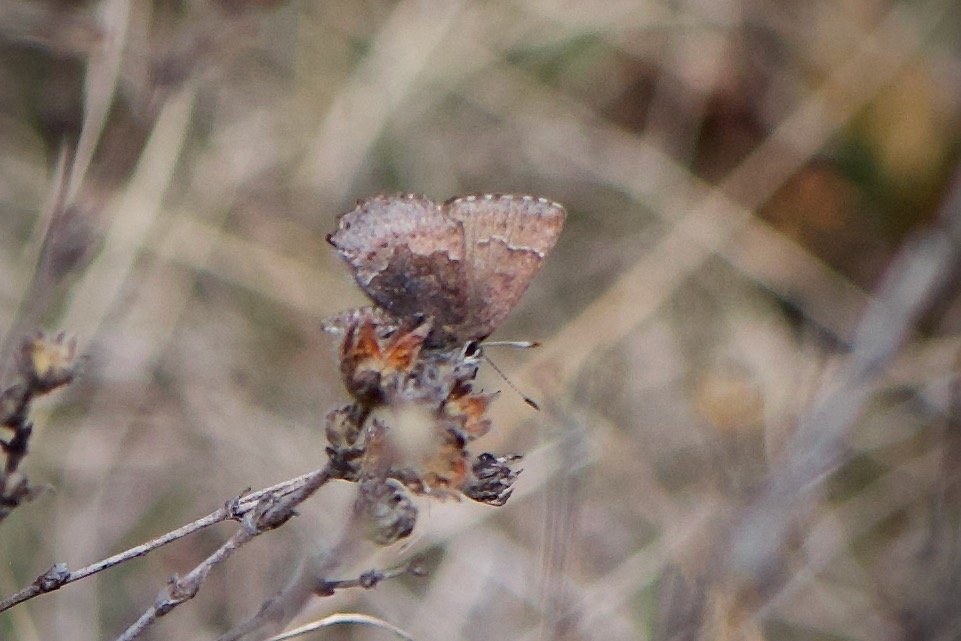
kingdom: Animalia
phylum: Arthropoda
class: Insecta
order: Lepidoptera
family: Lycaenidae
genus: Callophrys
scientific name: Callophrys polios
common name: Hoary Elfin
